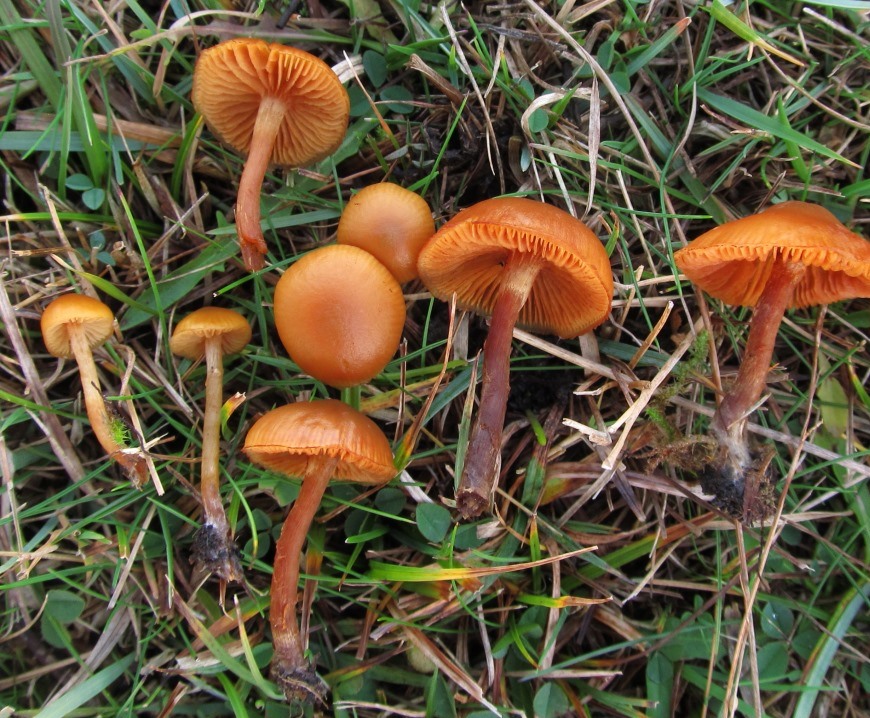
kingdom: Fungi
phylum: Basidiomycota
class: Agaricomycetes
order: Agaricales
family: Hymenogastraceae
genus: Galerina
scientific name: Galerina esteve-raventosii
